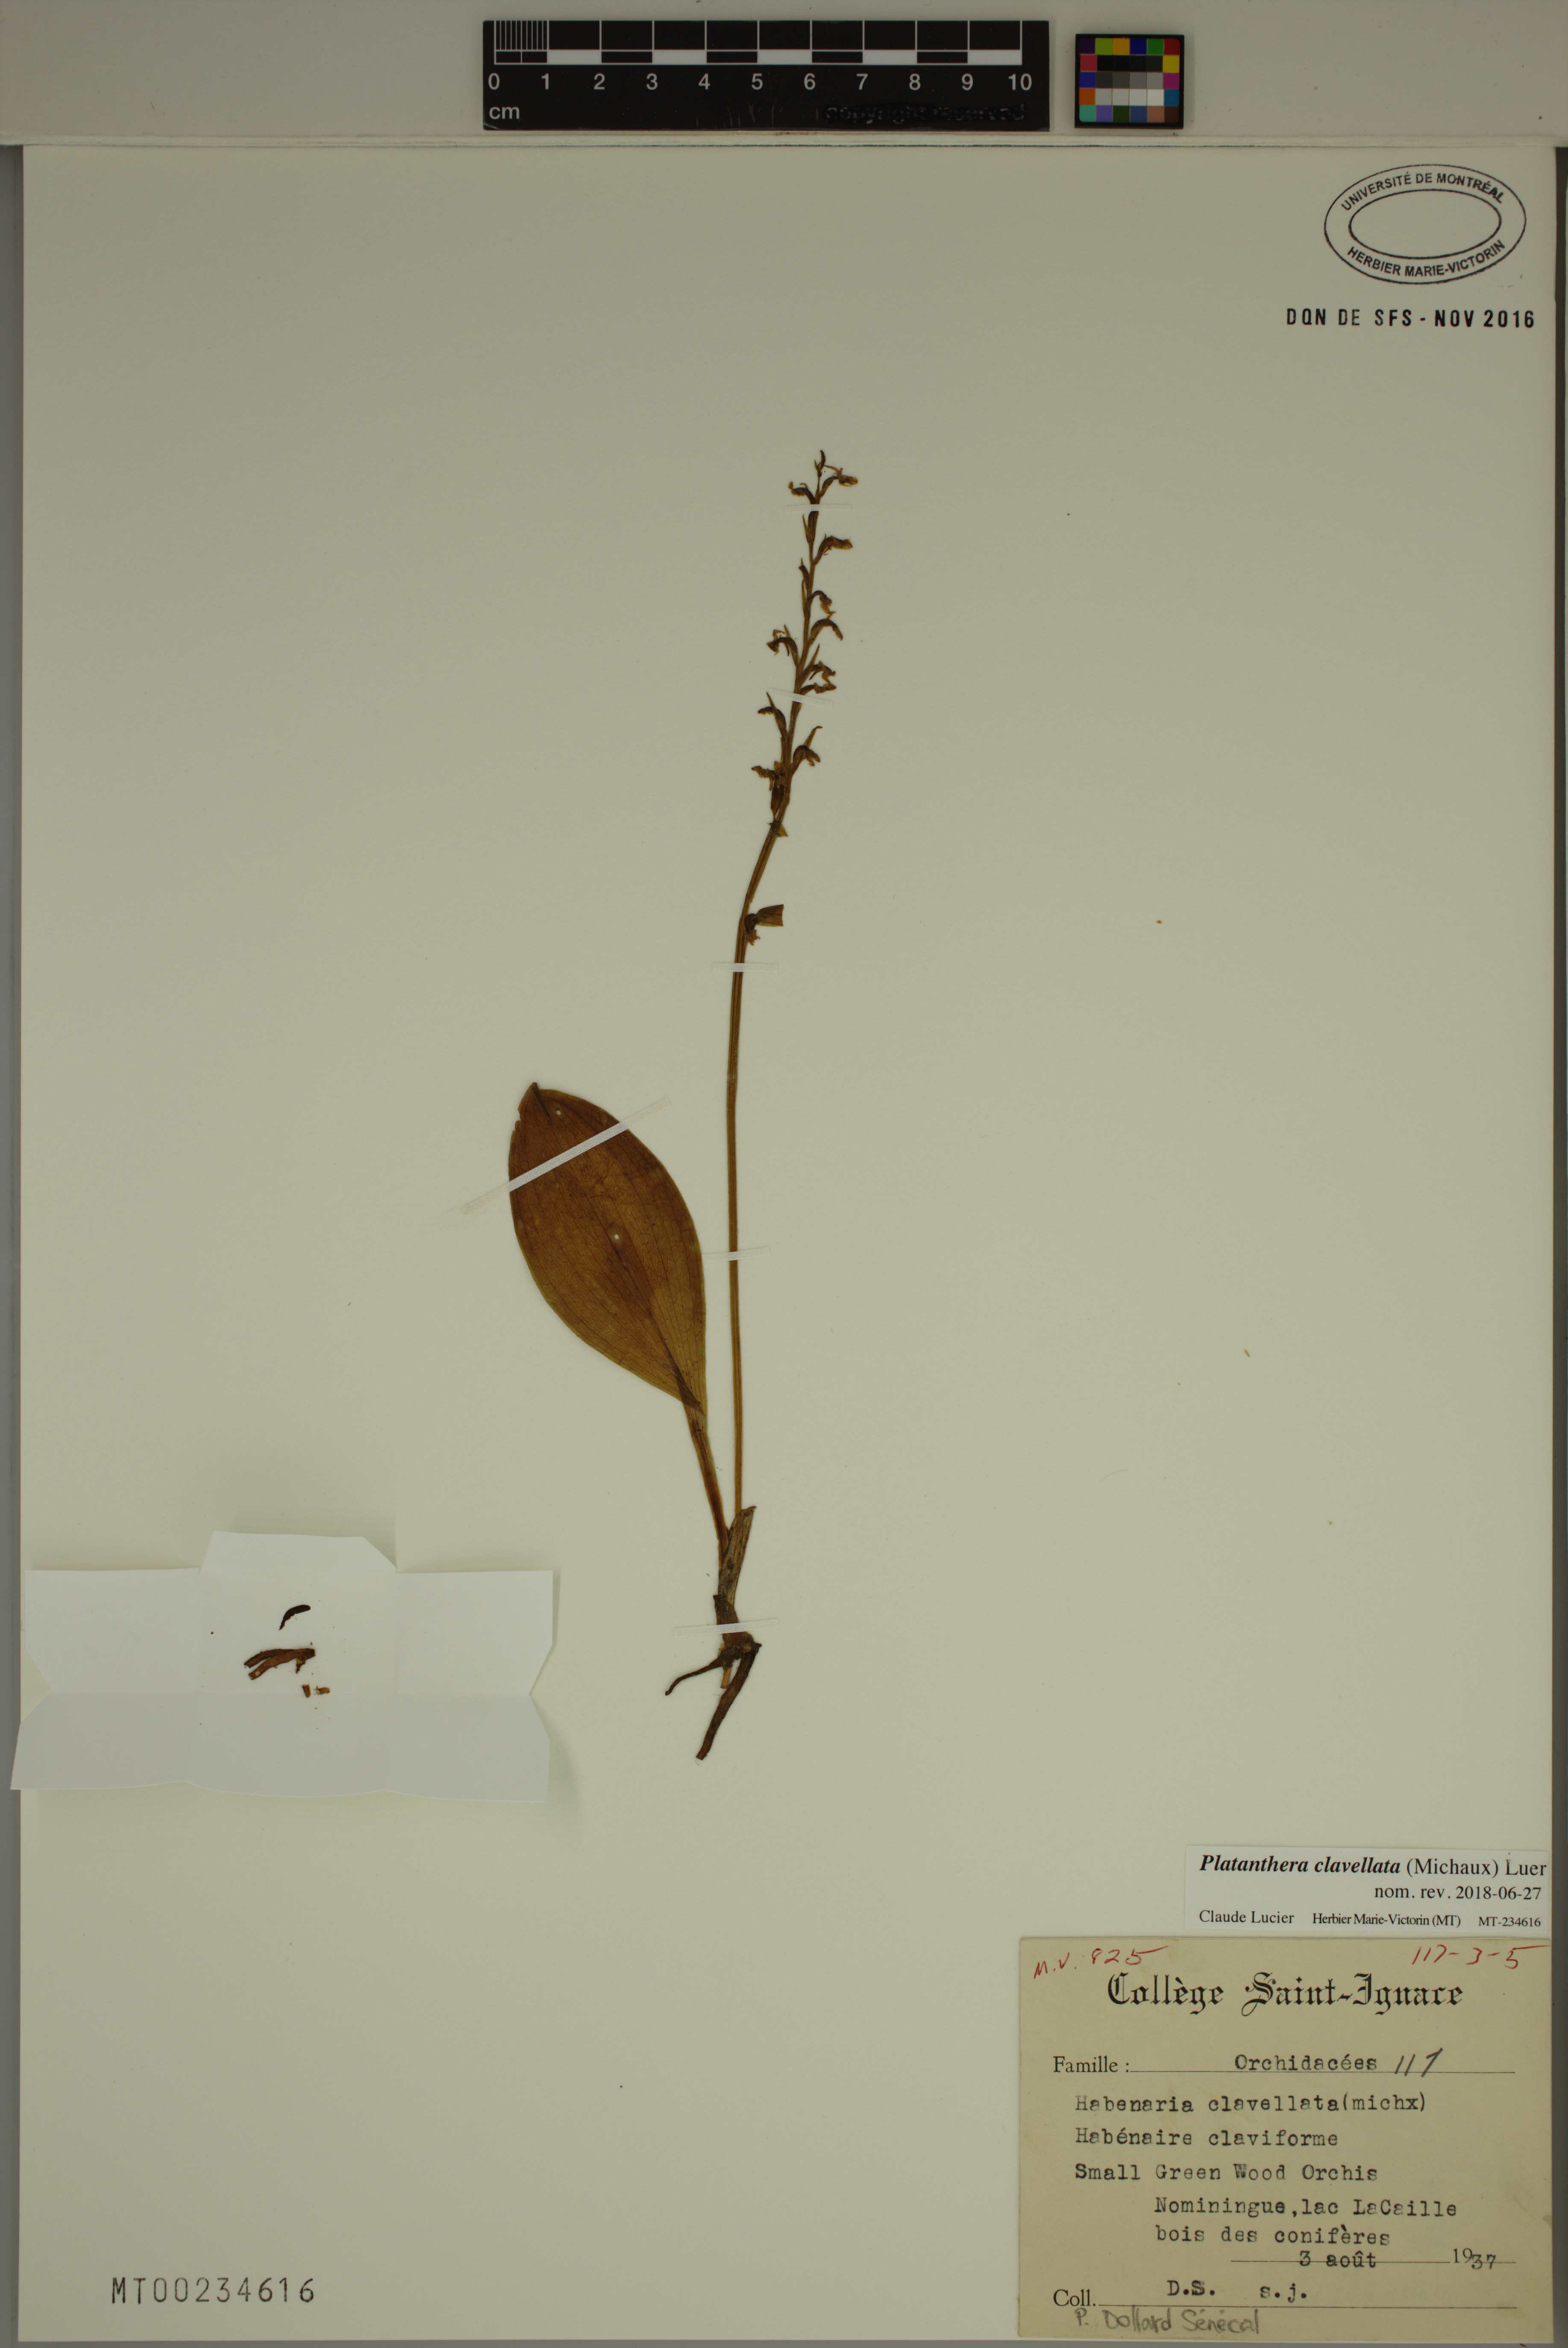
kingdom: Plantae
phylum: Tracheophyta
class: Liliopsida
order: Asparagales
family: Orchidaceae
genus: Platanthera
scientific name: Platanthera clavellata
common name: Club-spur orchid
